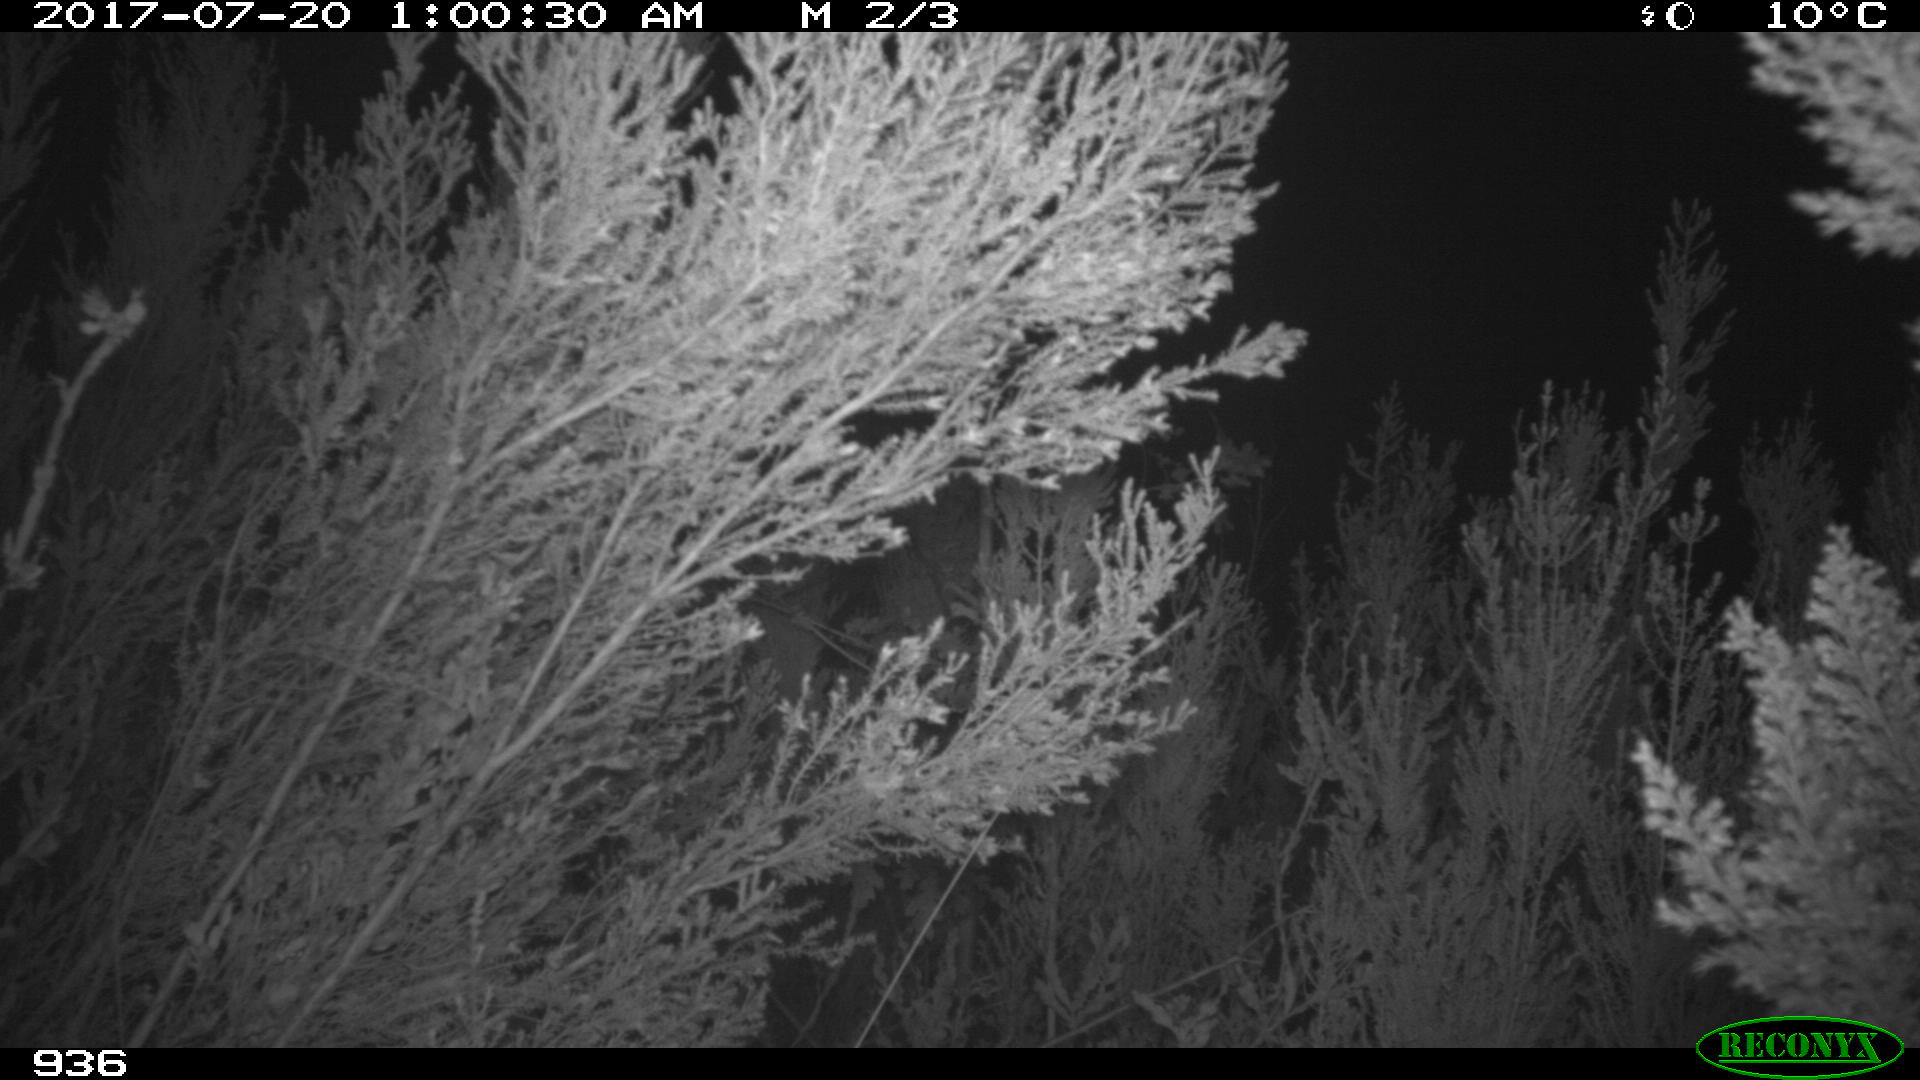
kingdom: Animalia
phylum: Chordata
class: Mammalia
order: Artiodactyla
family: Cervidae
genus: Capreolus
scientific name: Capreolus capreolus
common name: Western roe deer
